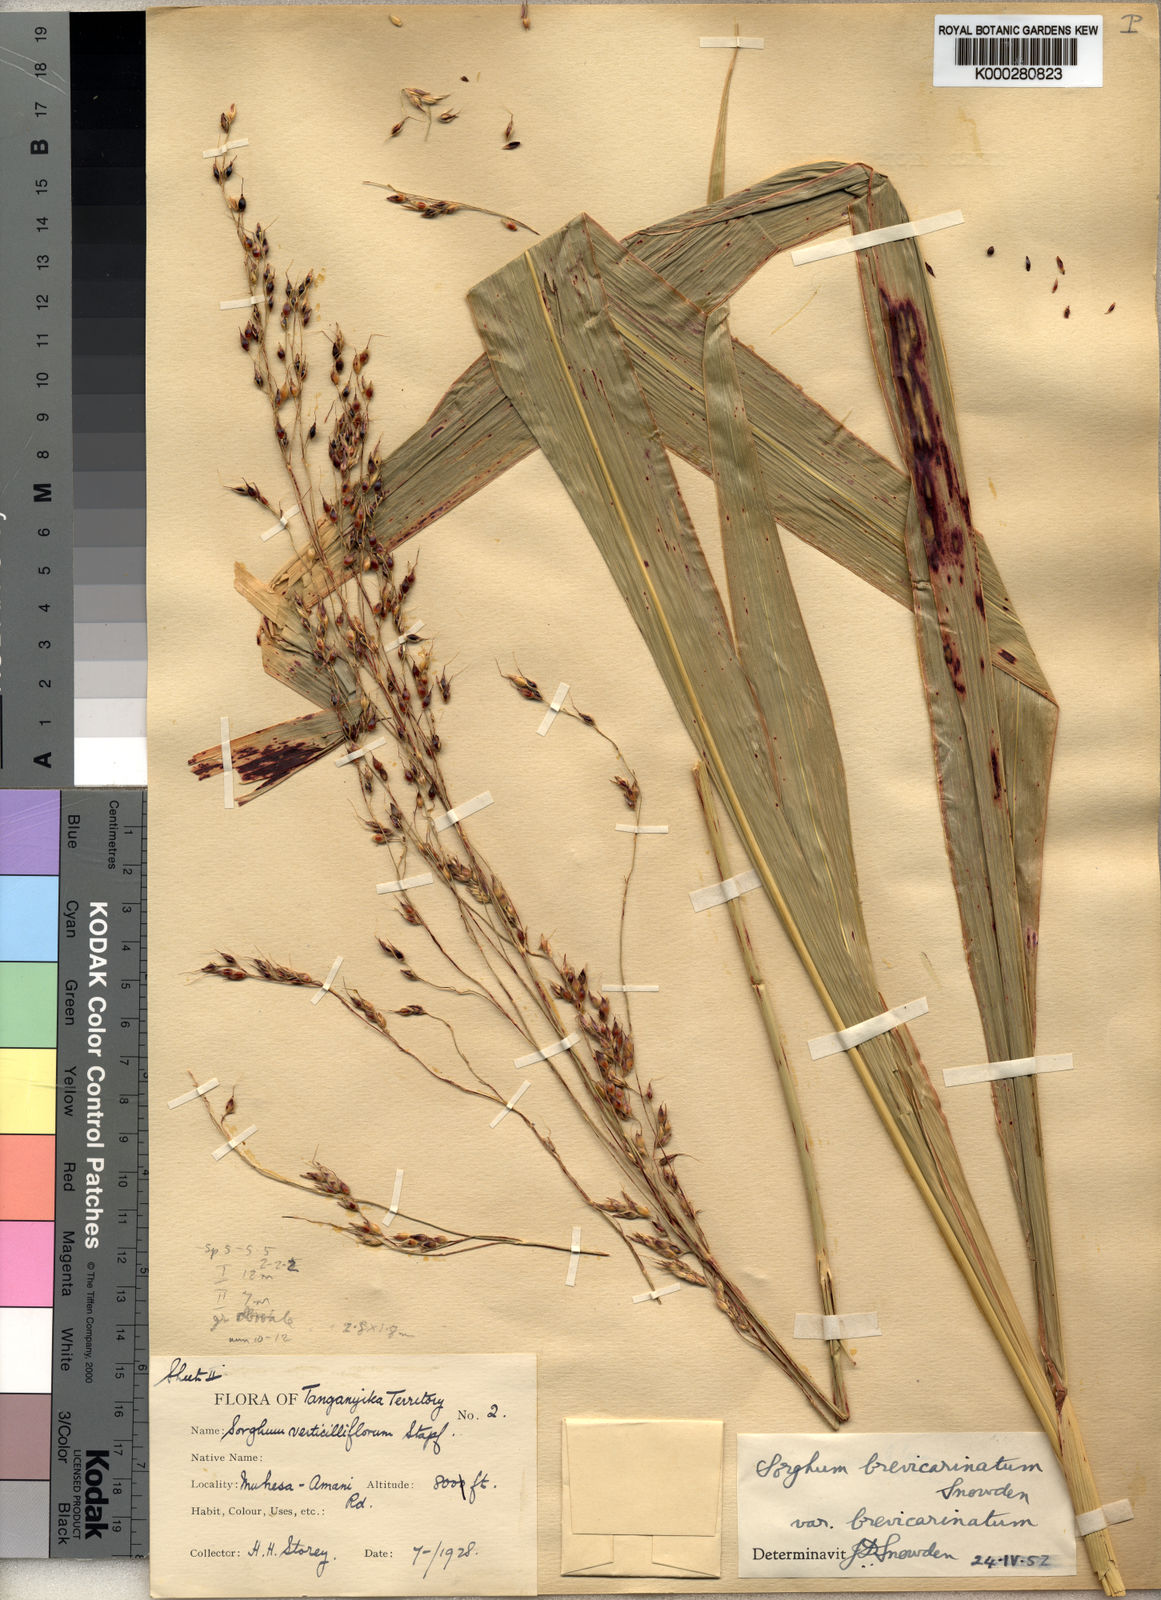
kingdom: Plantae
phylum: Tracheophyta
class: Liliopsida
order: Poales
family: Poaceae
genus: Sorghum
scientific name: Sorghum arundinaceum
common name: Sorghum
